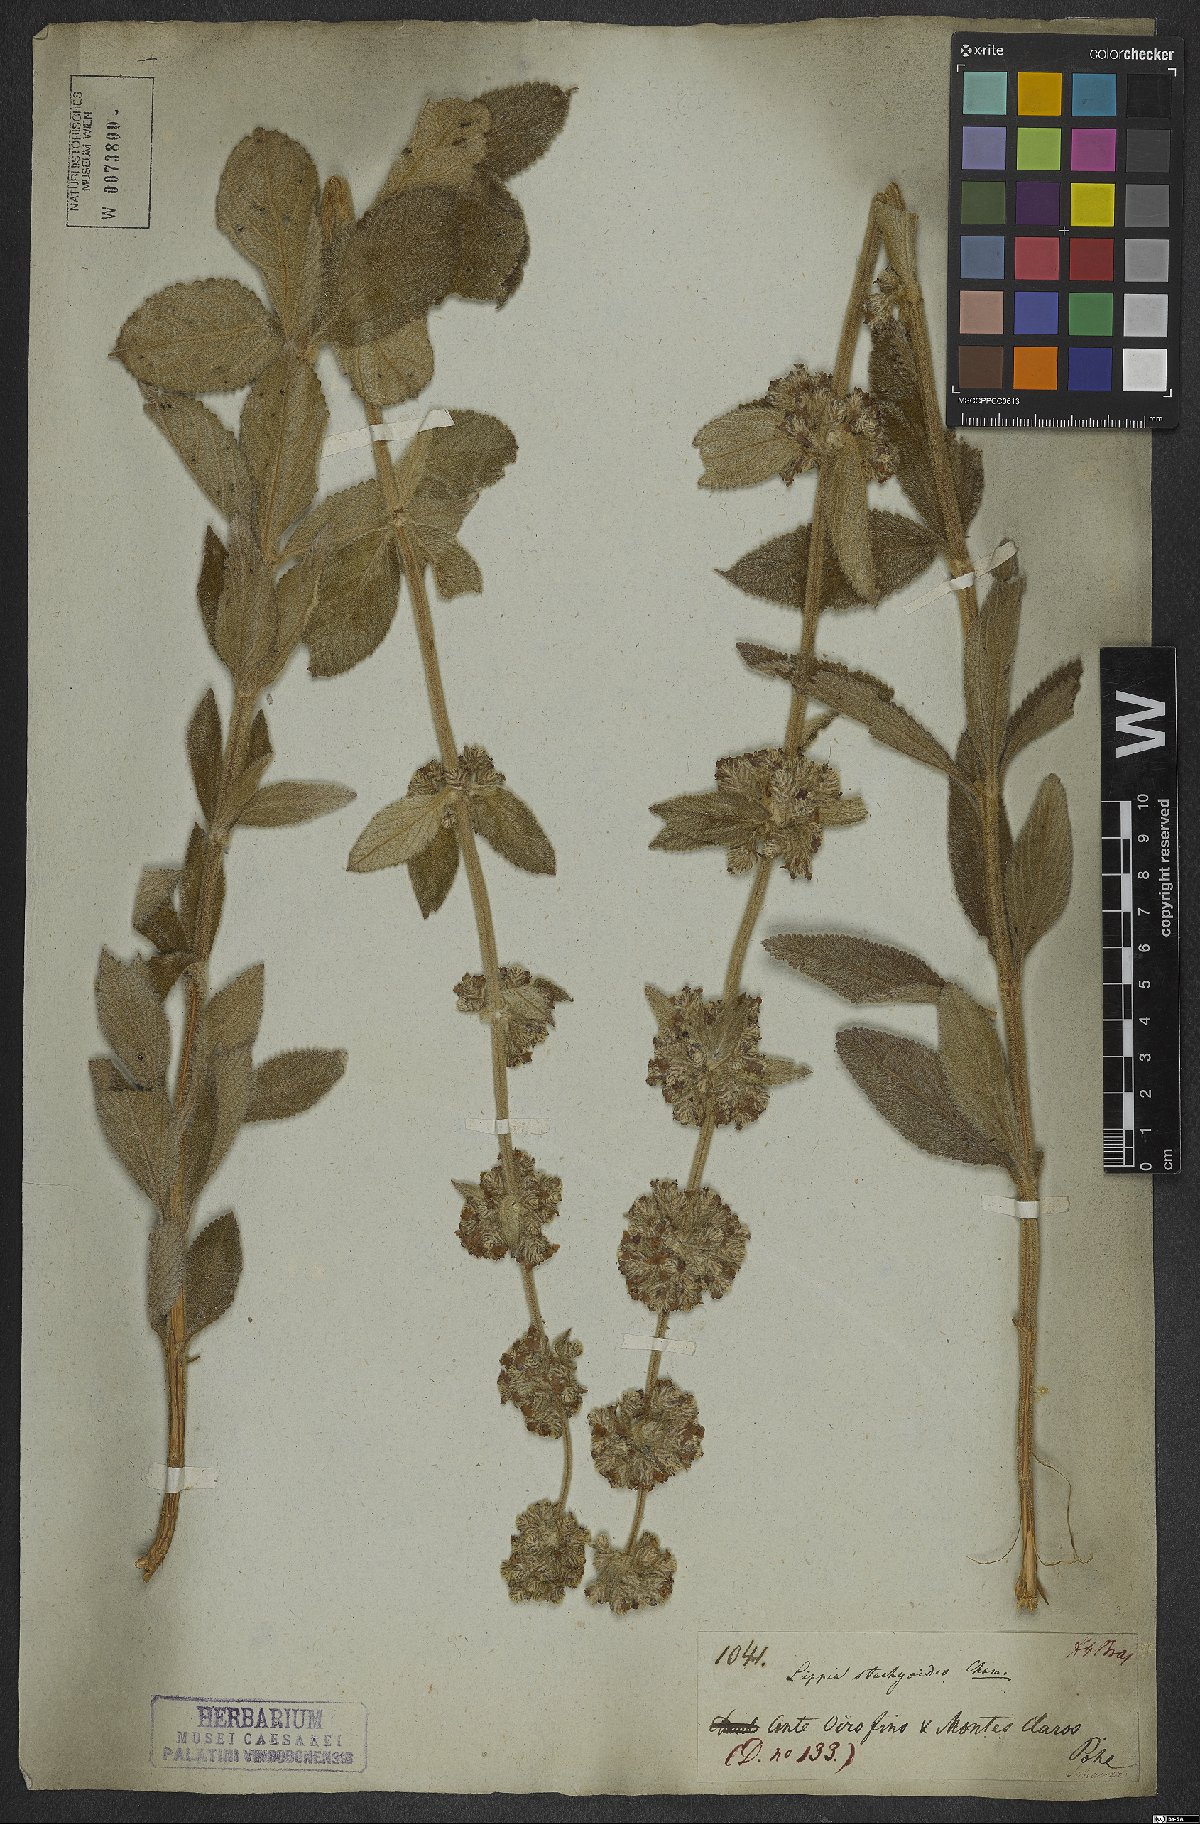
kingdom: Plantae
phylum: Tracheophyta
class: Magnoliopsida
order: Lamiales
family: Verbenaceae
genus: Lippia
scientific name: Lippia stachyoides
